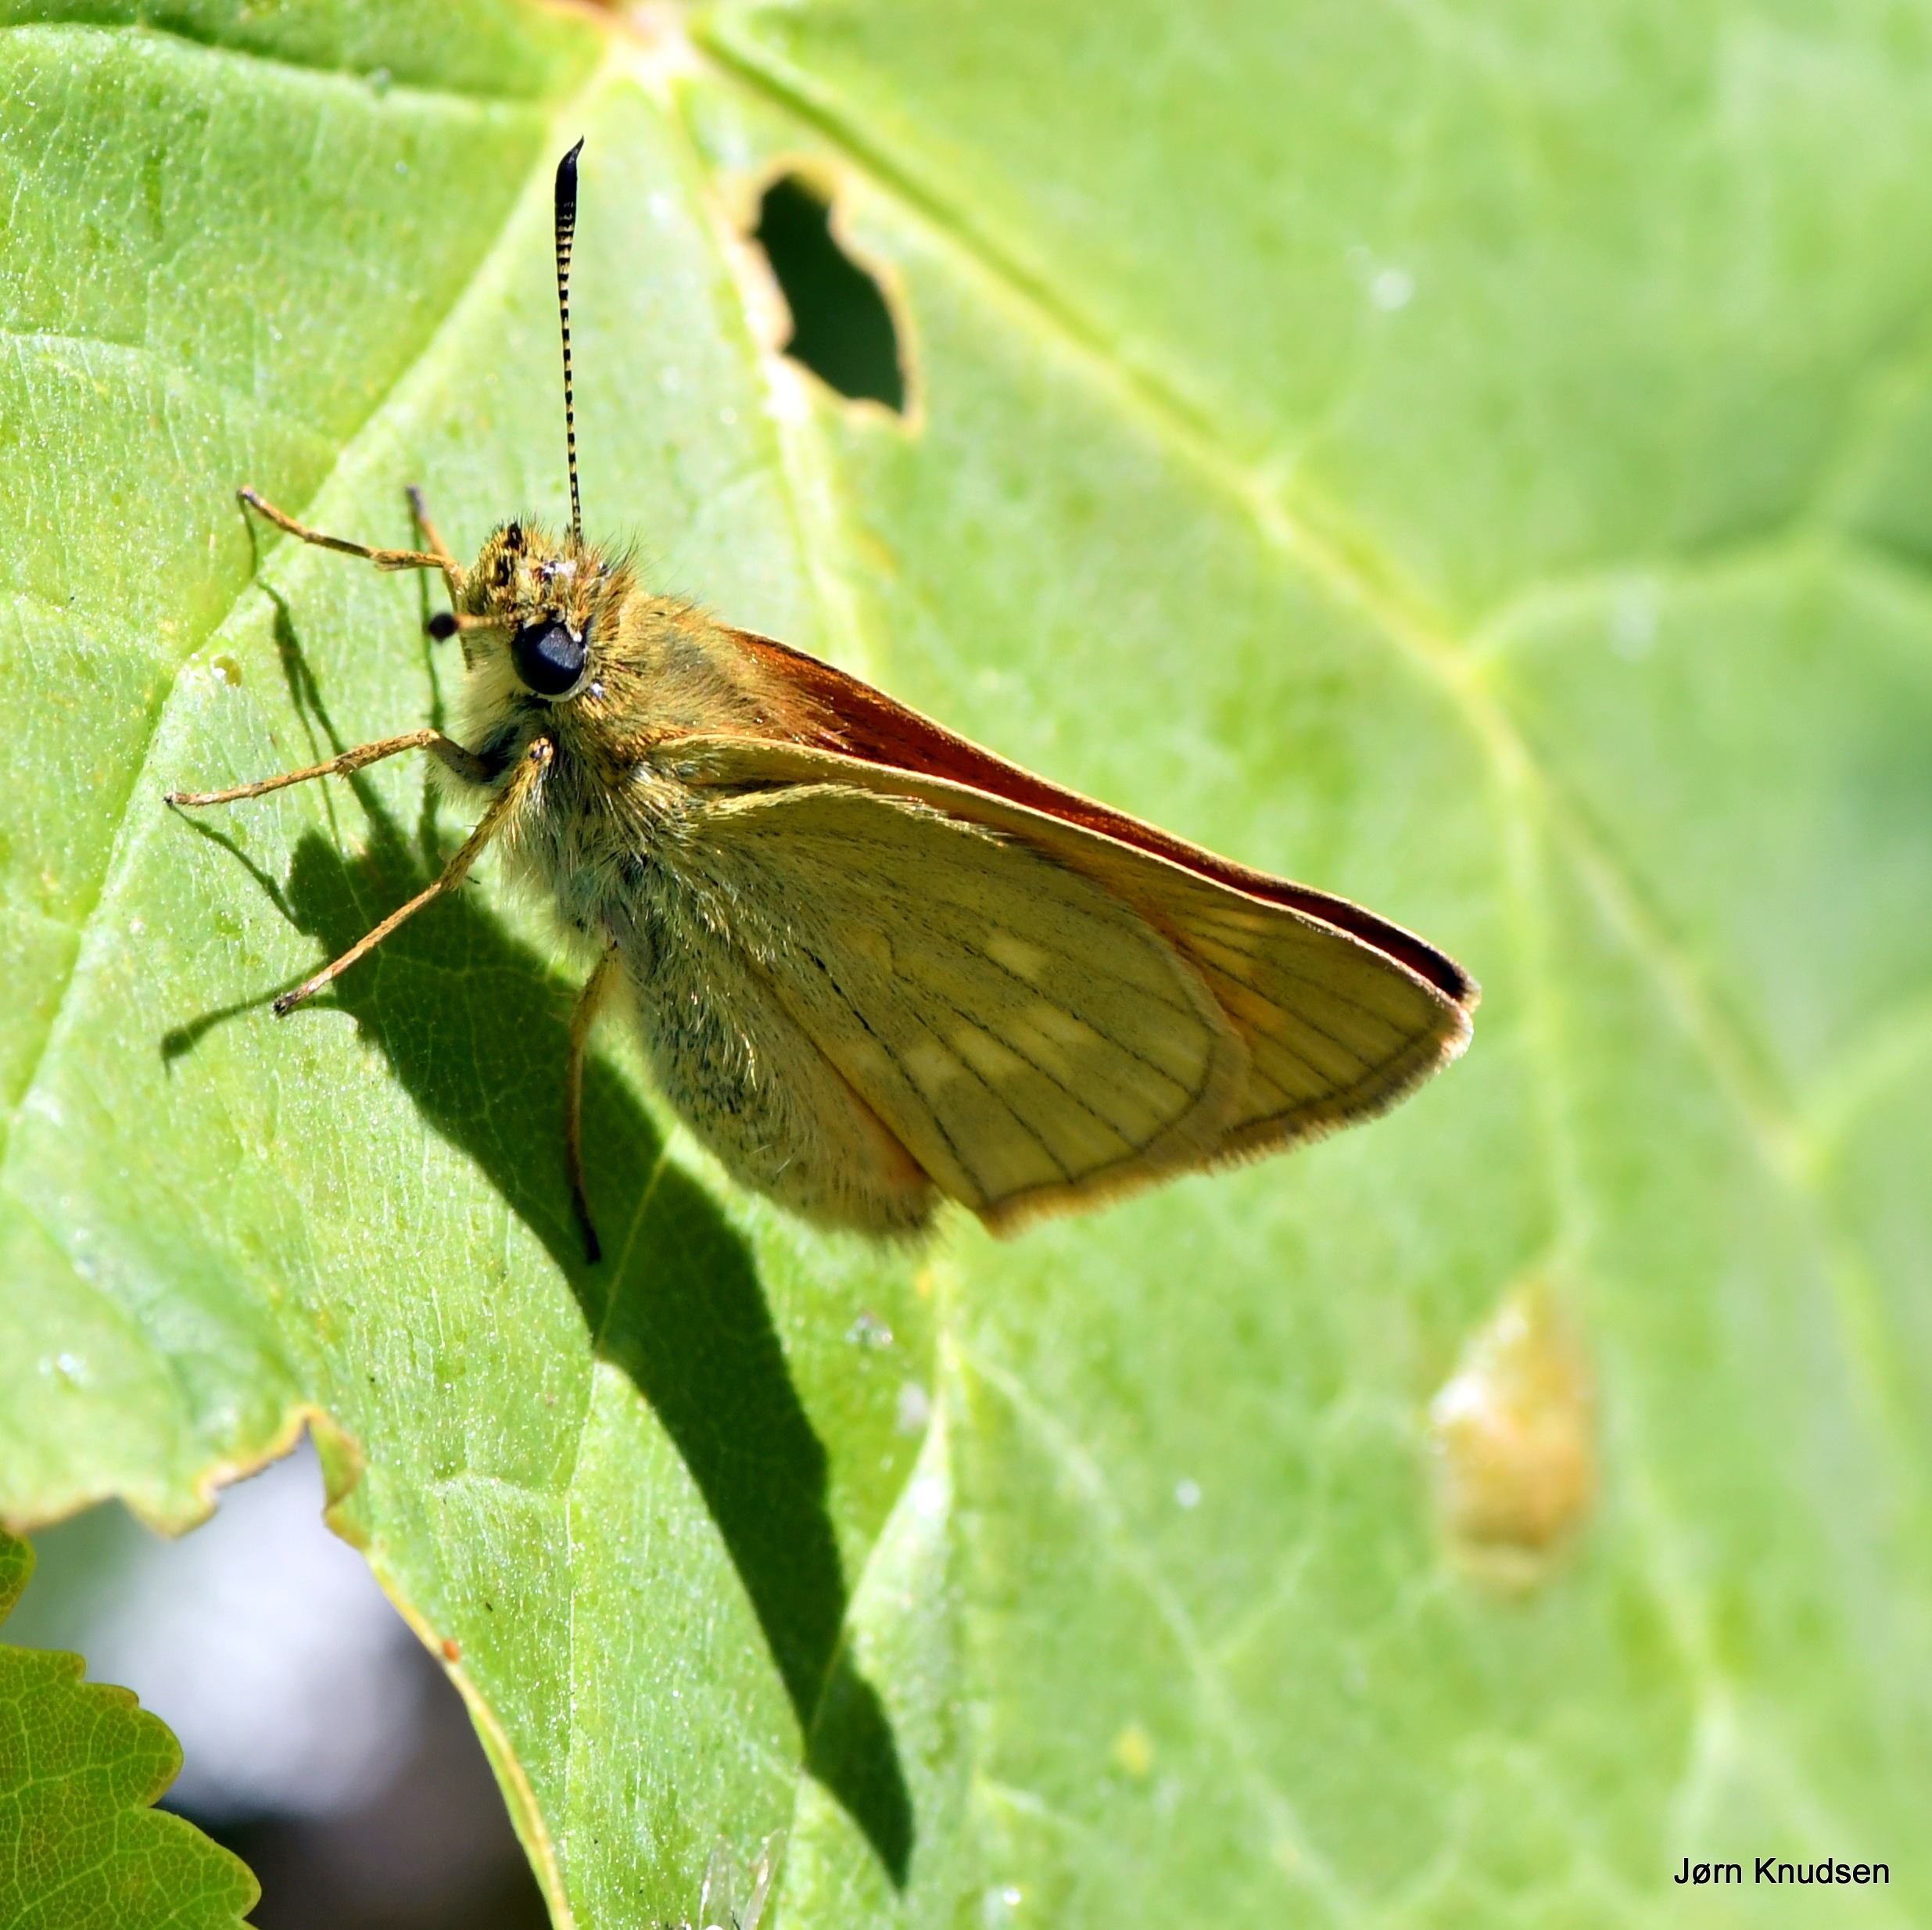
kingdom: Animalia
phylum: Arthropoda
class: Insecta
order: Lepidoptera
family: Hesperiidae
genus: Ochlodes
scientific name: Ochlodes venata
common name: Stor bredpande
